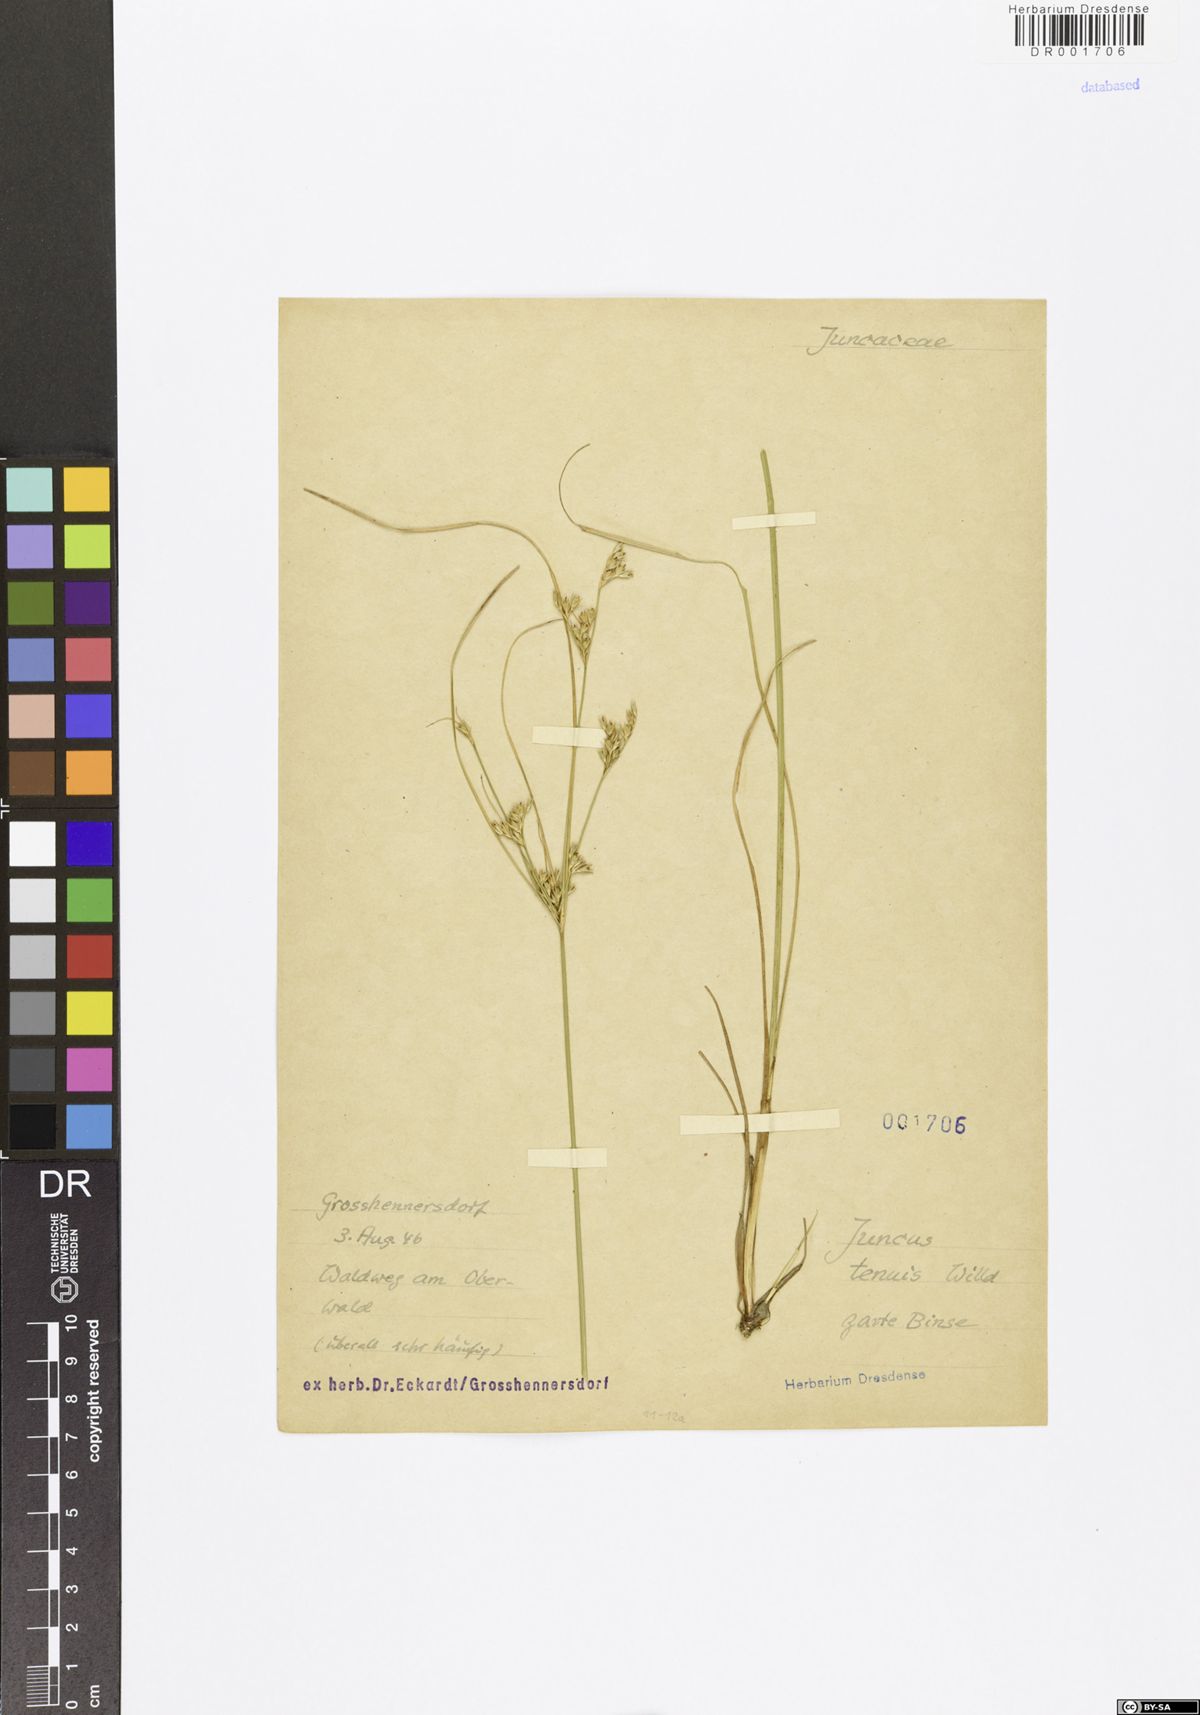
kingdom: Plantae
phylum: Tracheophyta
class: Liliopsida
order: Poales
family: Juncaceae
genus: Juncus
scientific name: Juncus tenuis
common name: Slender rush
